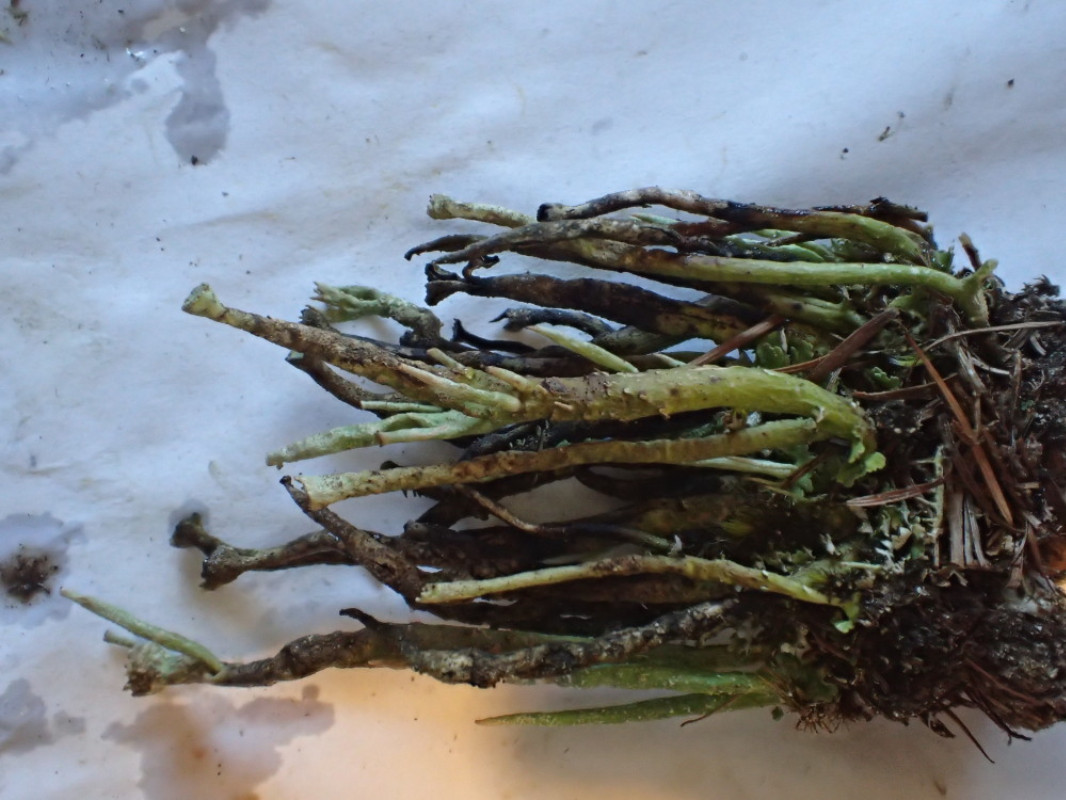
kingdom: Fungi
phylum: Ascomycota
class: Lecanoromycetes
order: Lecanorales
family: Cladoniaceae
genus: Cladonia
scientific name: Cladonia gracilis
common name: slank bægerlav
